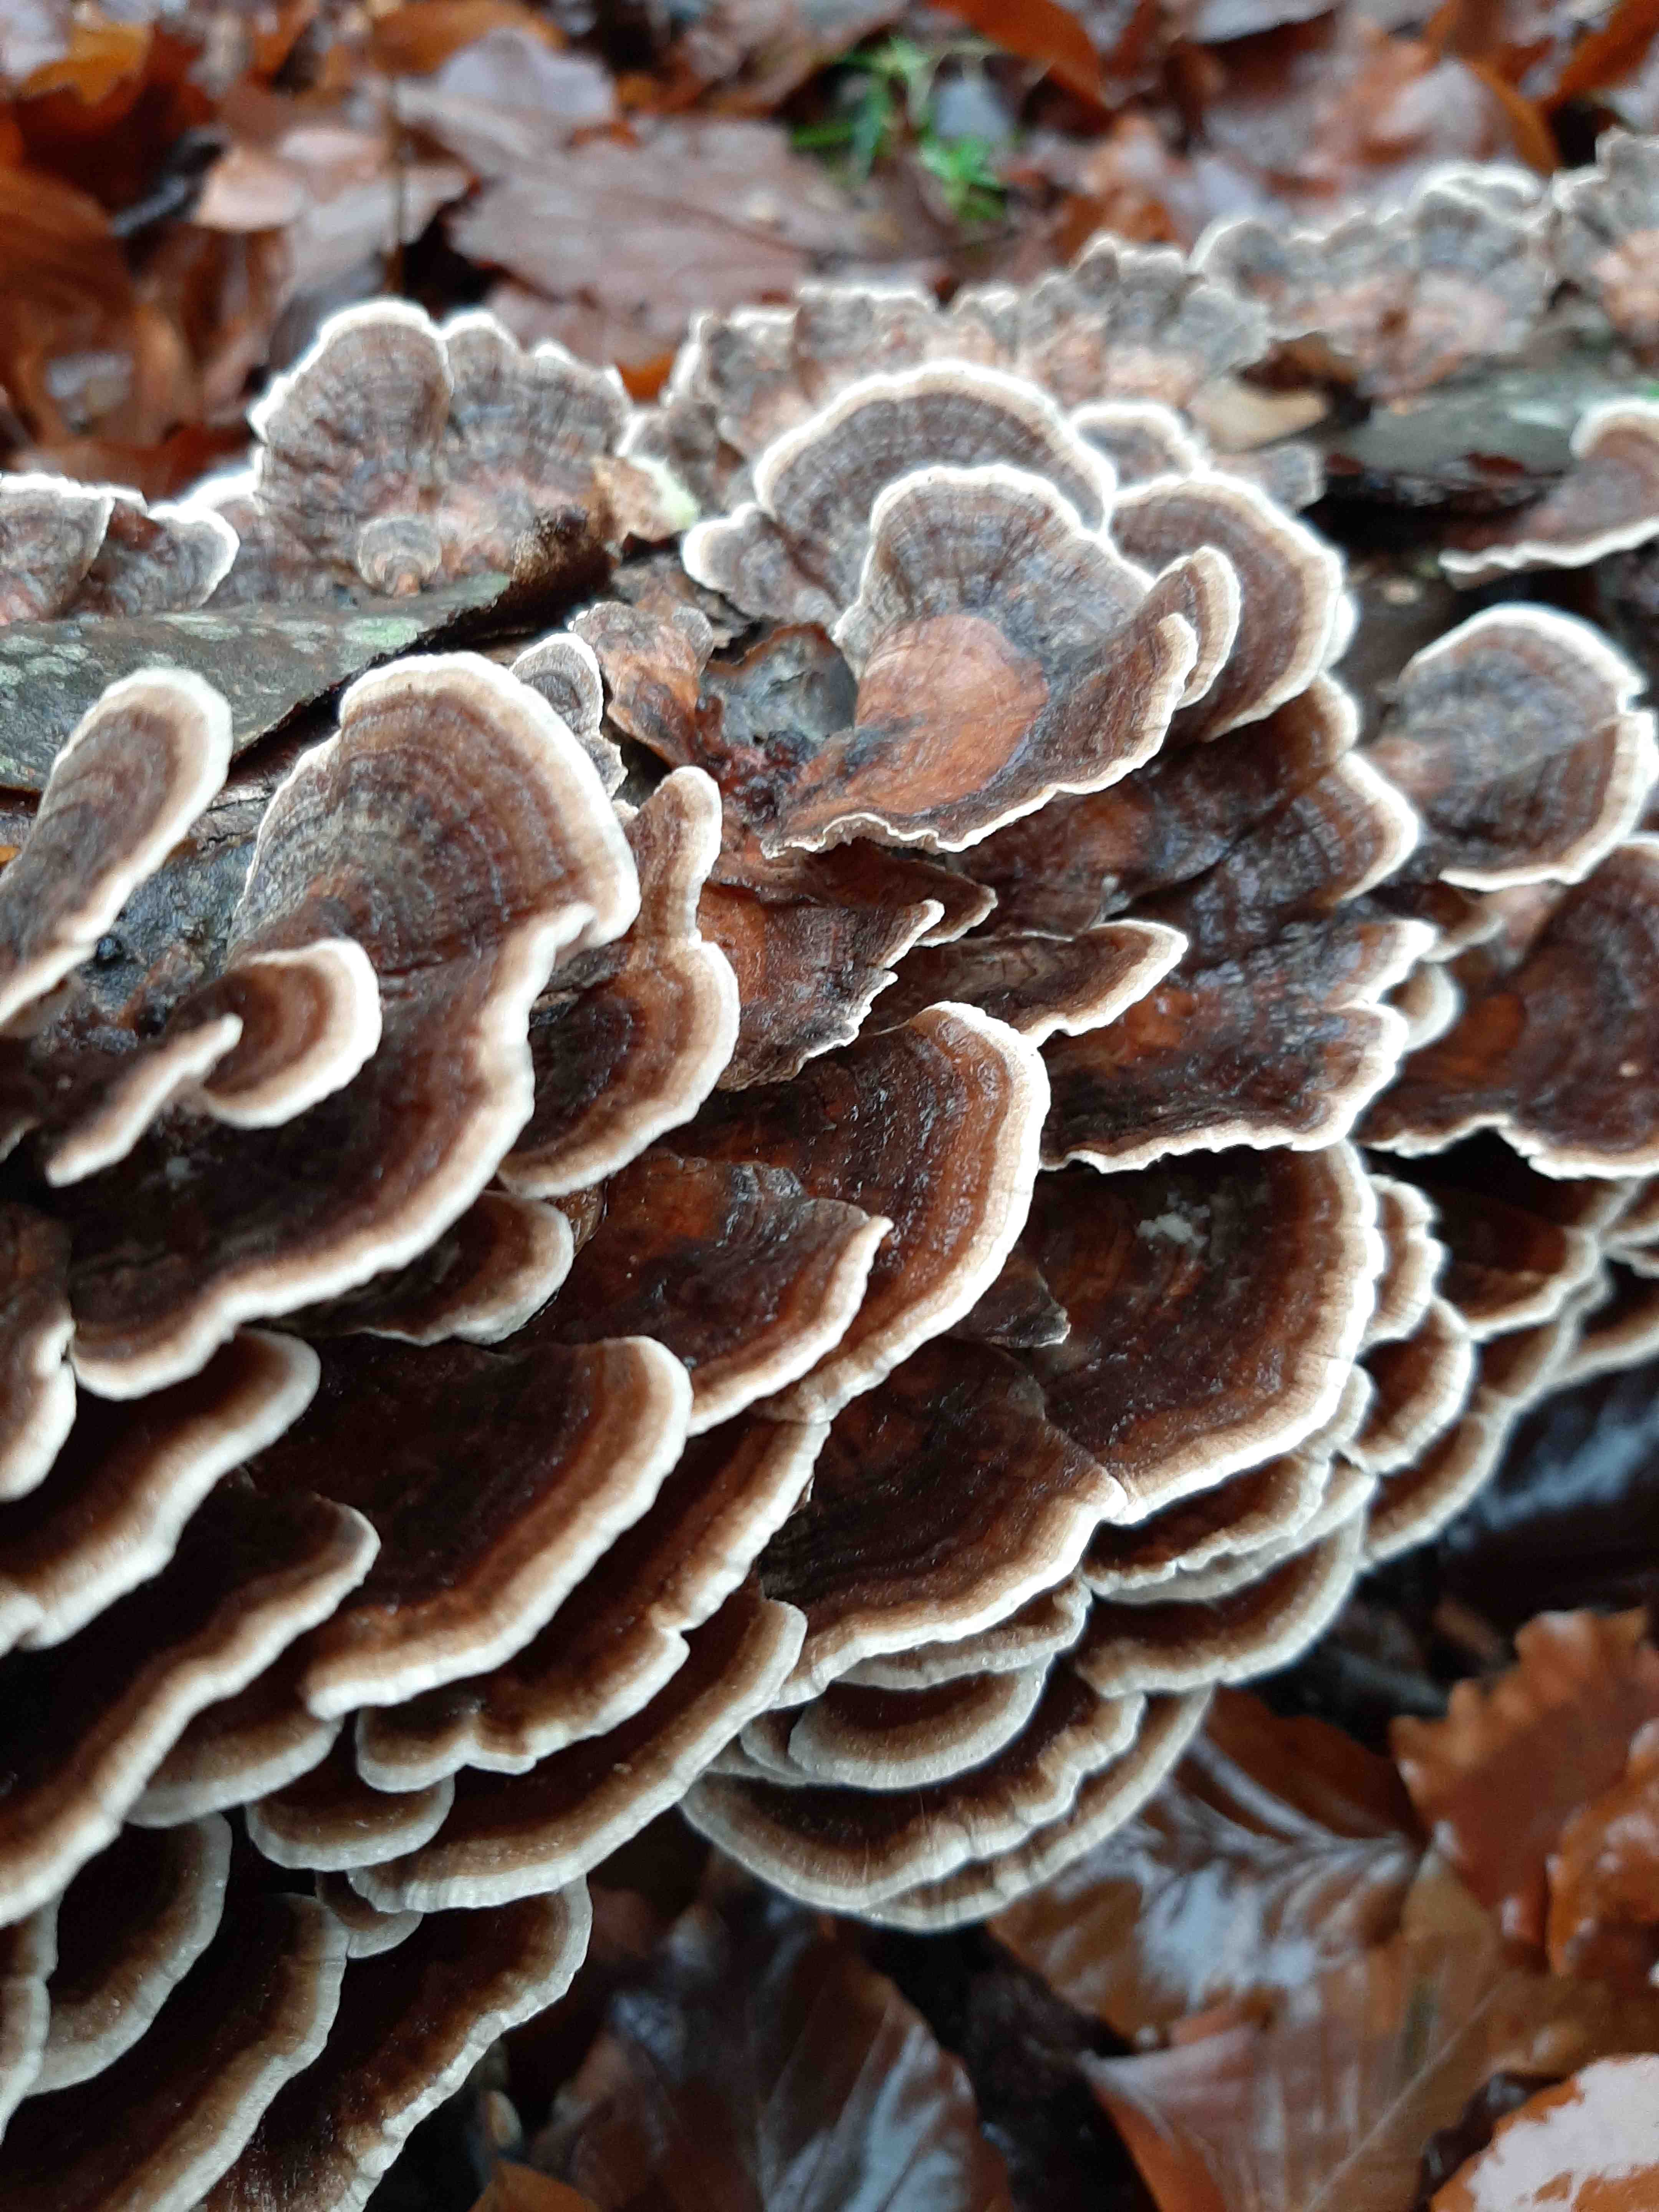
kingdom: Fungi
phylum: Basidiomycota
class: Agaricomycetes
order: Polyporales
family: Polyporaceae
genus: Trametes
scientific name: Trametes versicolor
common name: broget læderporesvamp
